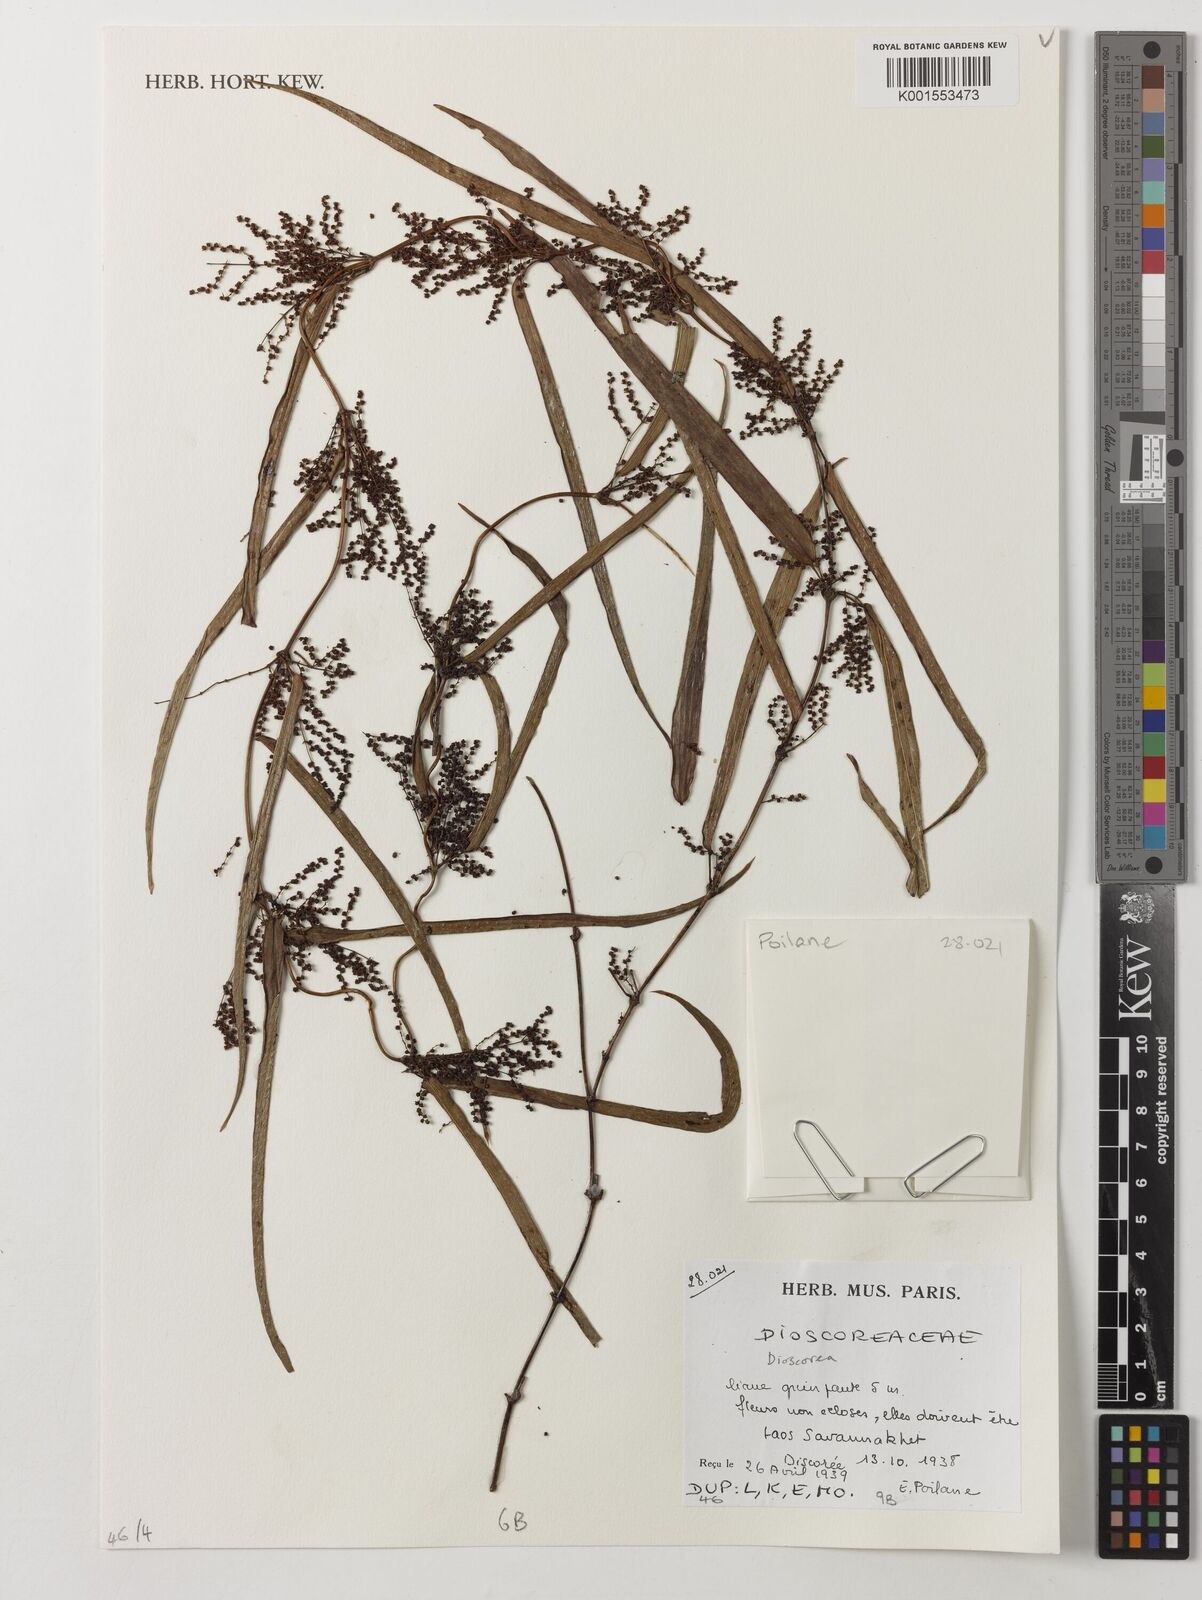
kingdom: Plantae
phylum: Tracheophyta
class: Liliopsida
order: Dioscoreales
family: Dioscoreaceae
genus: Dioscorea
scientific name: Dioscorea
